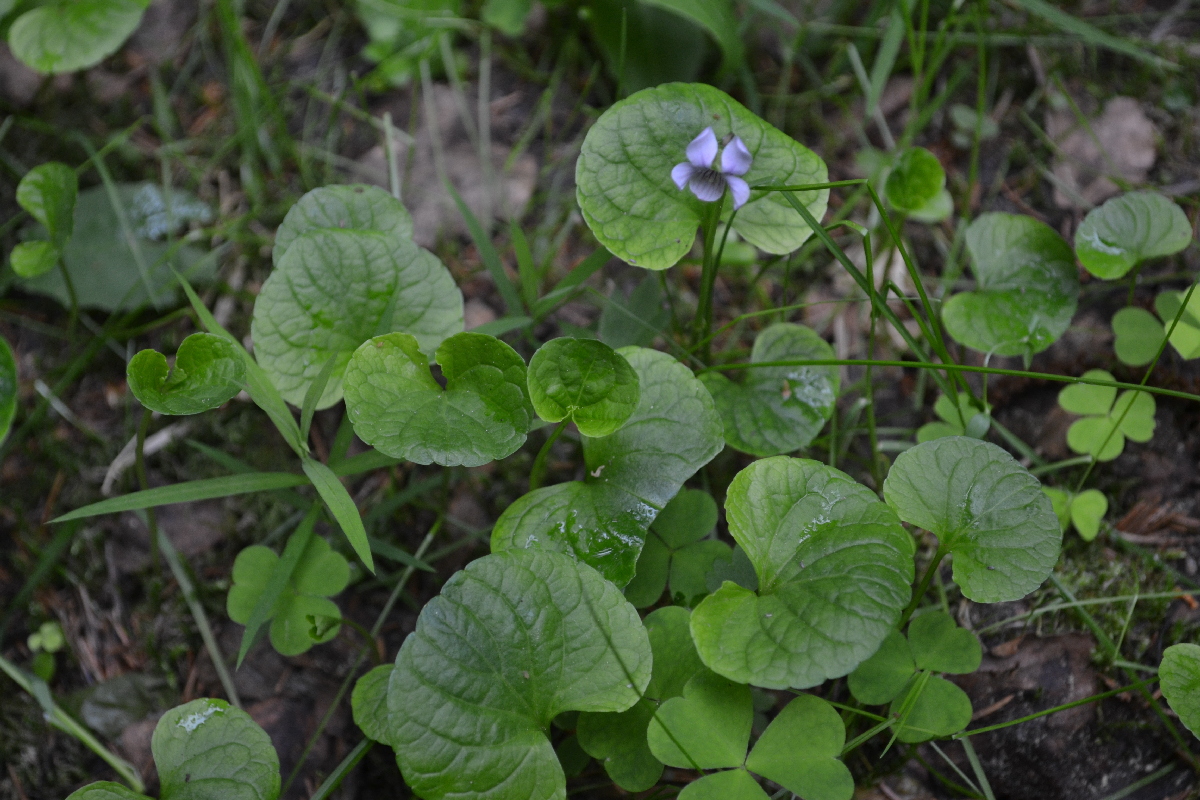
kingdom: Plantae
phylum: Tracheophyta
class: Magnoliopsida
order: Malpighiales
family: Violaceae
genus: Viola
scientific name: Viola palustris
